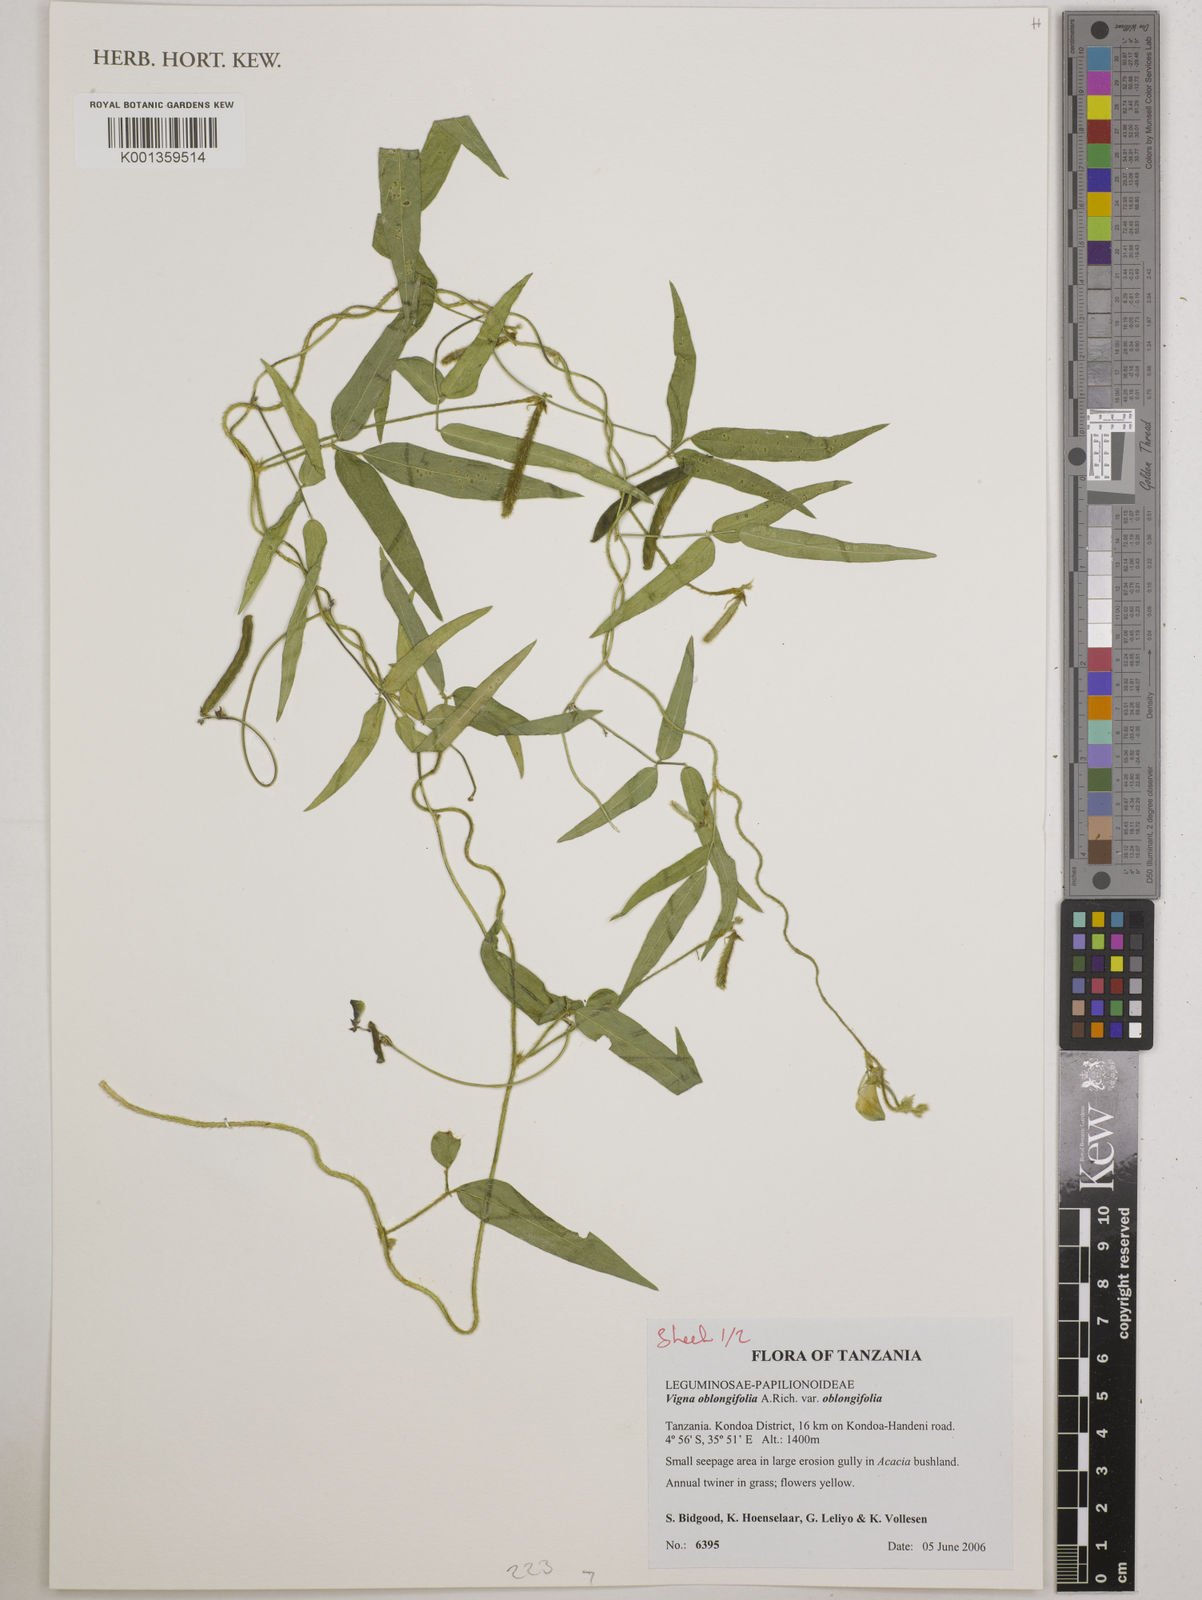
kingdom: Plantae
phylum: Tracheophyta
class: Magnoliopsida
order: Fabales
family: Fabaceae
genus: Vigna
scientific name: Vigna oblongifolia
